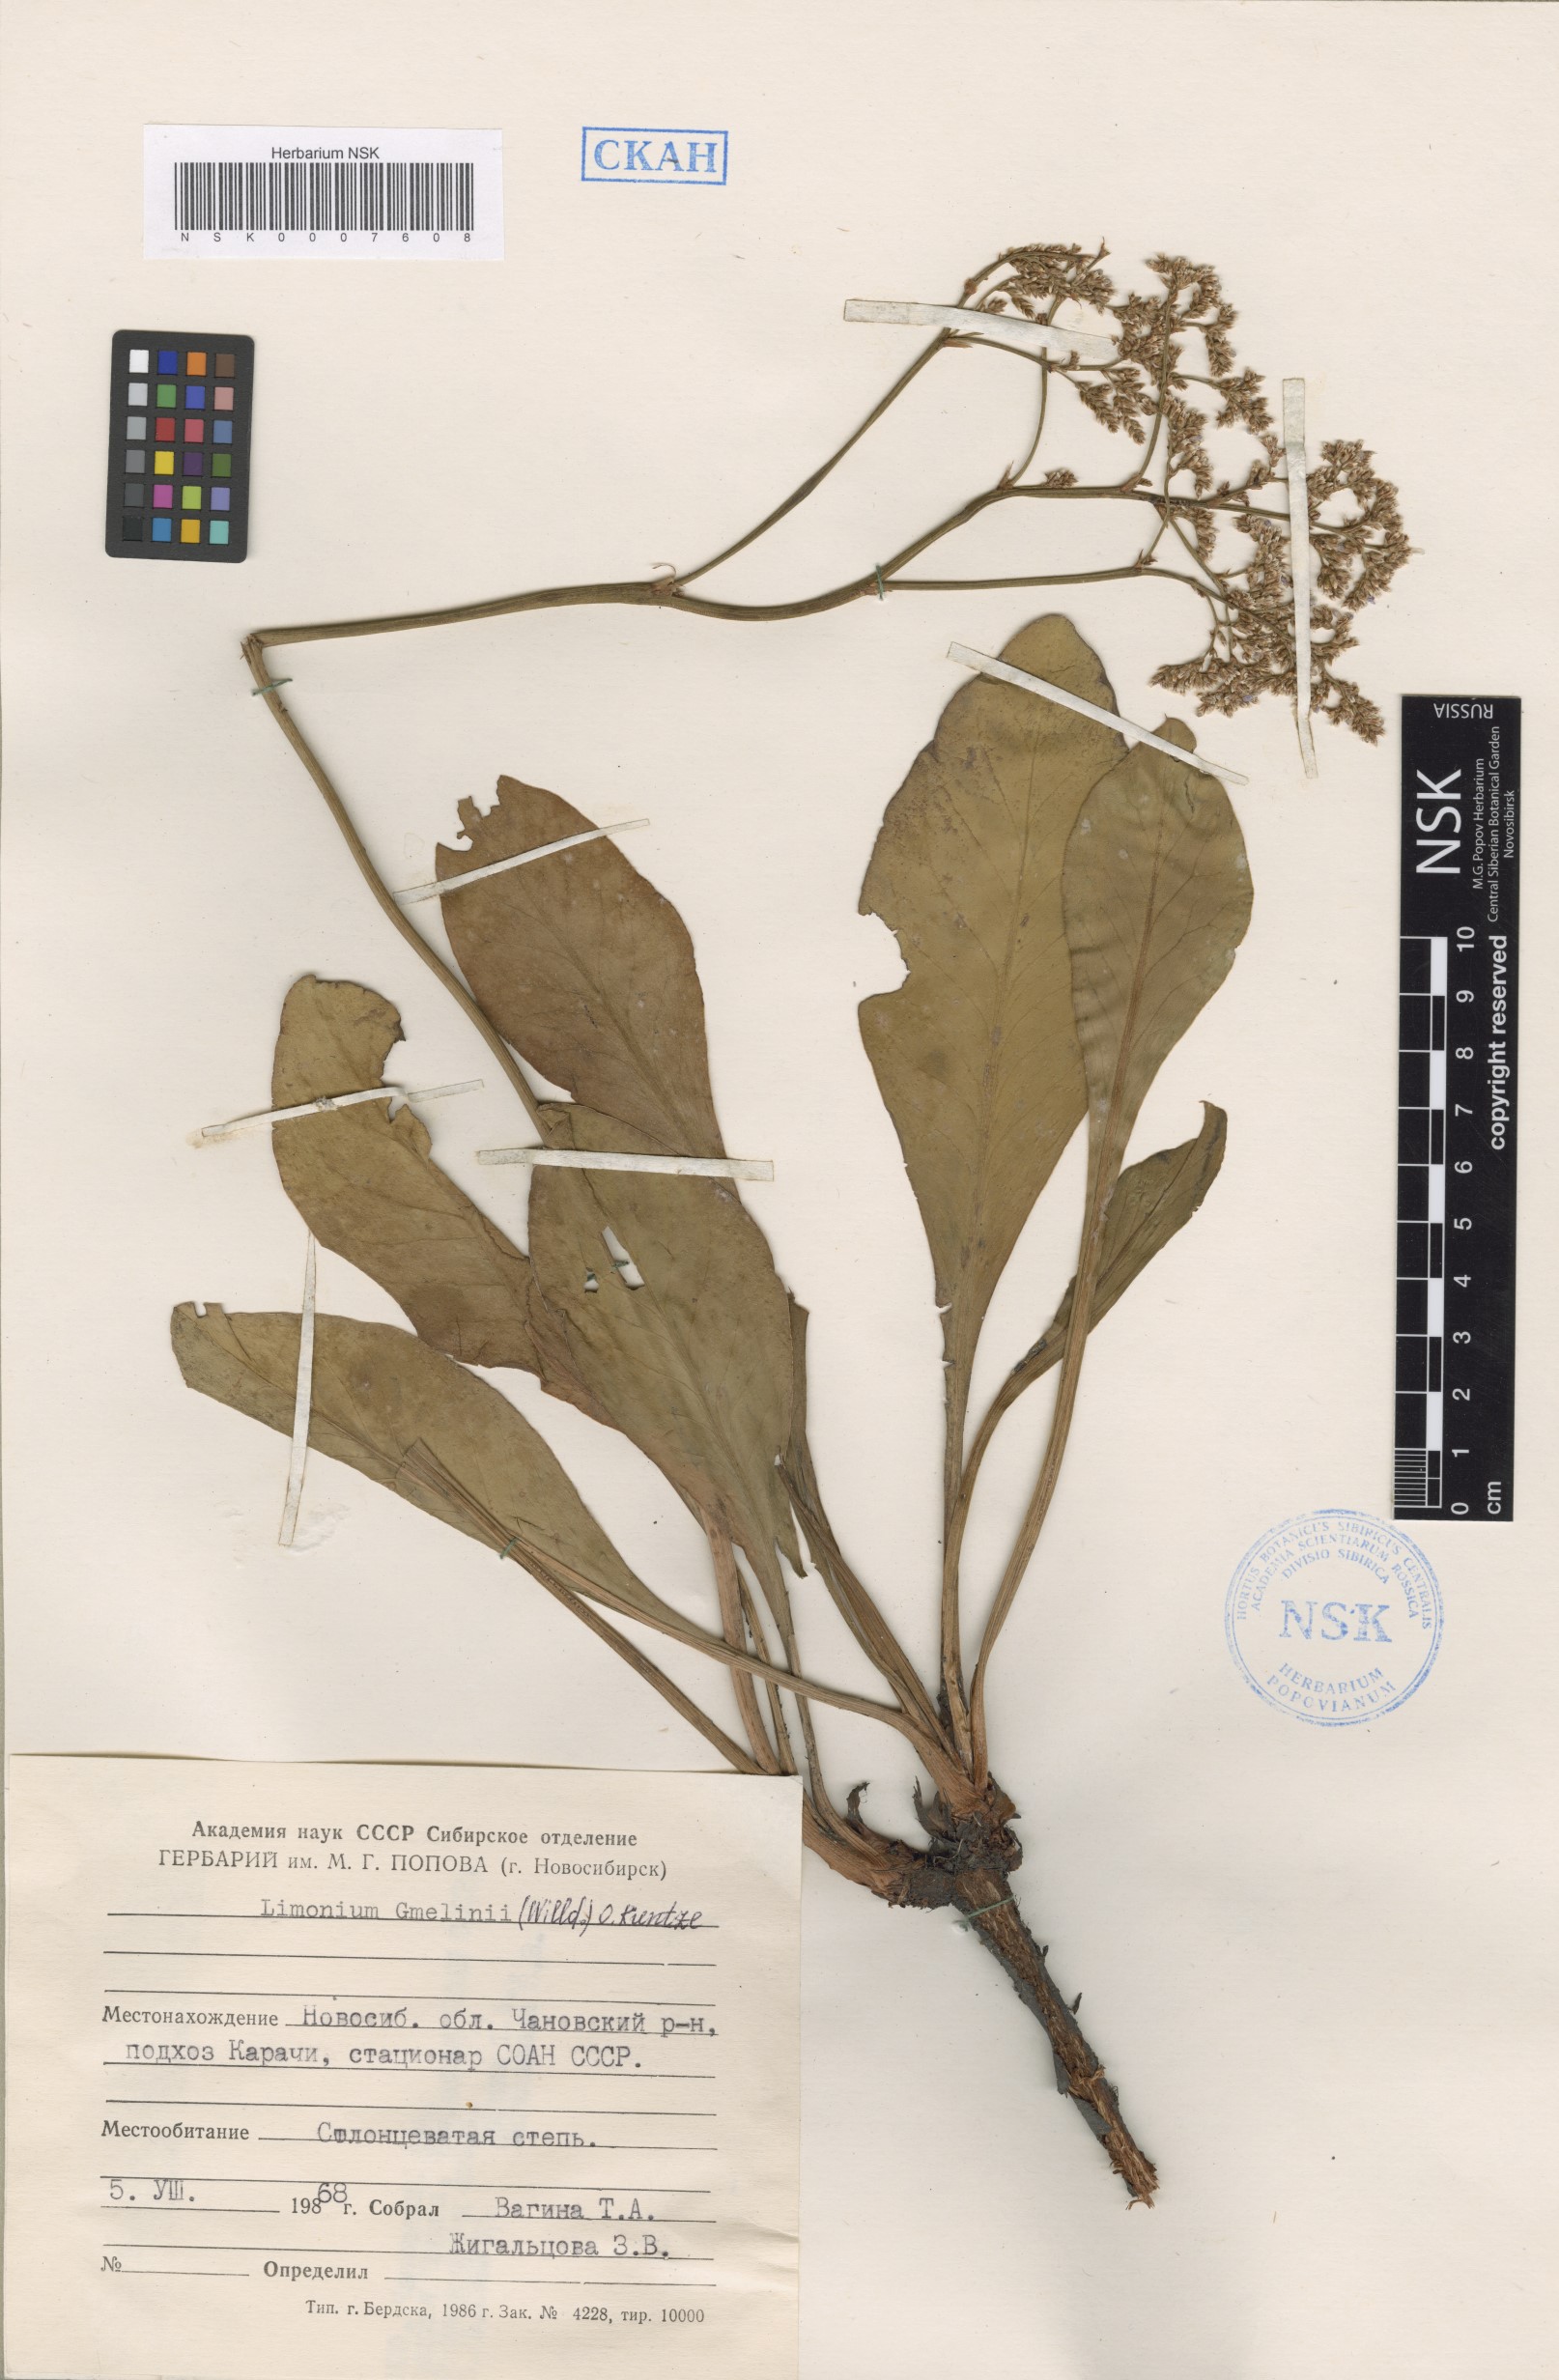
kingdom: Plantae
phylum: Tracheophyta
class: Magnoliopsida
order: Caryophyllales
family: Plumbaginaceae
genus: Limonium
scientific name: Limonium gmelini
